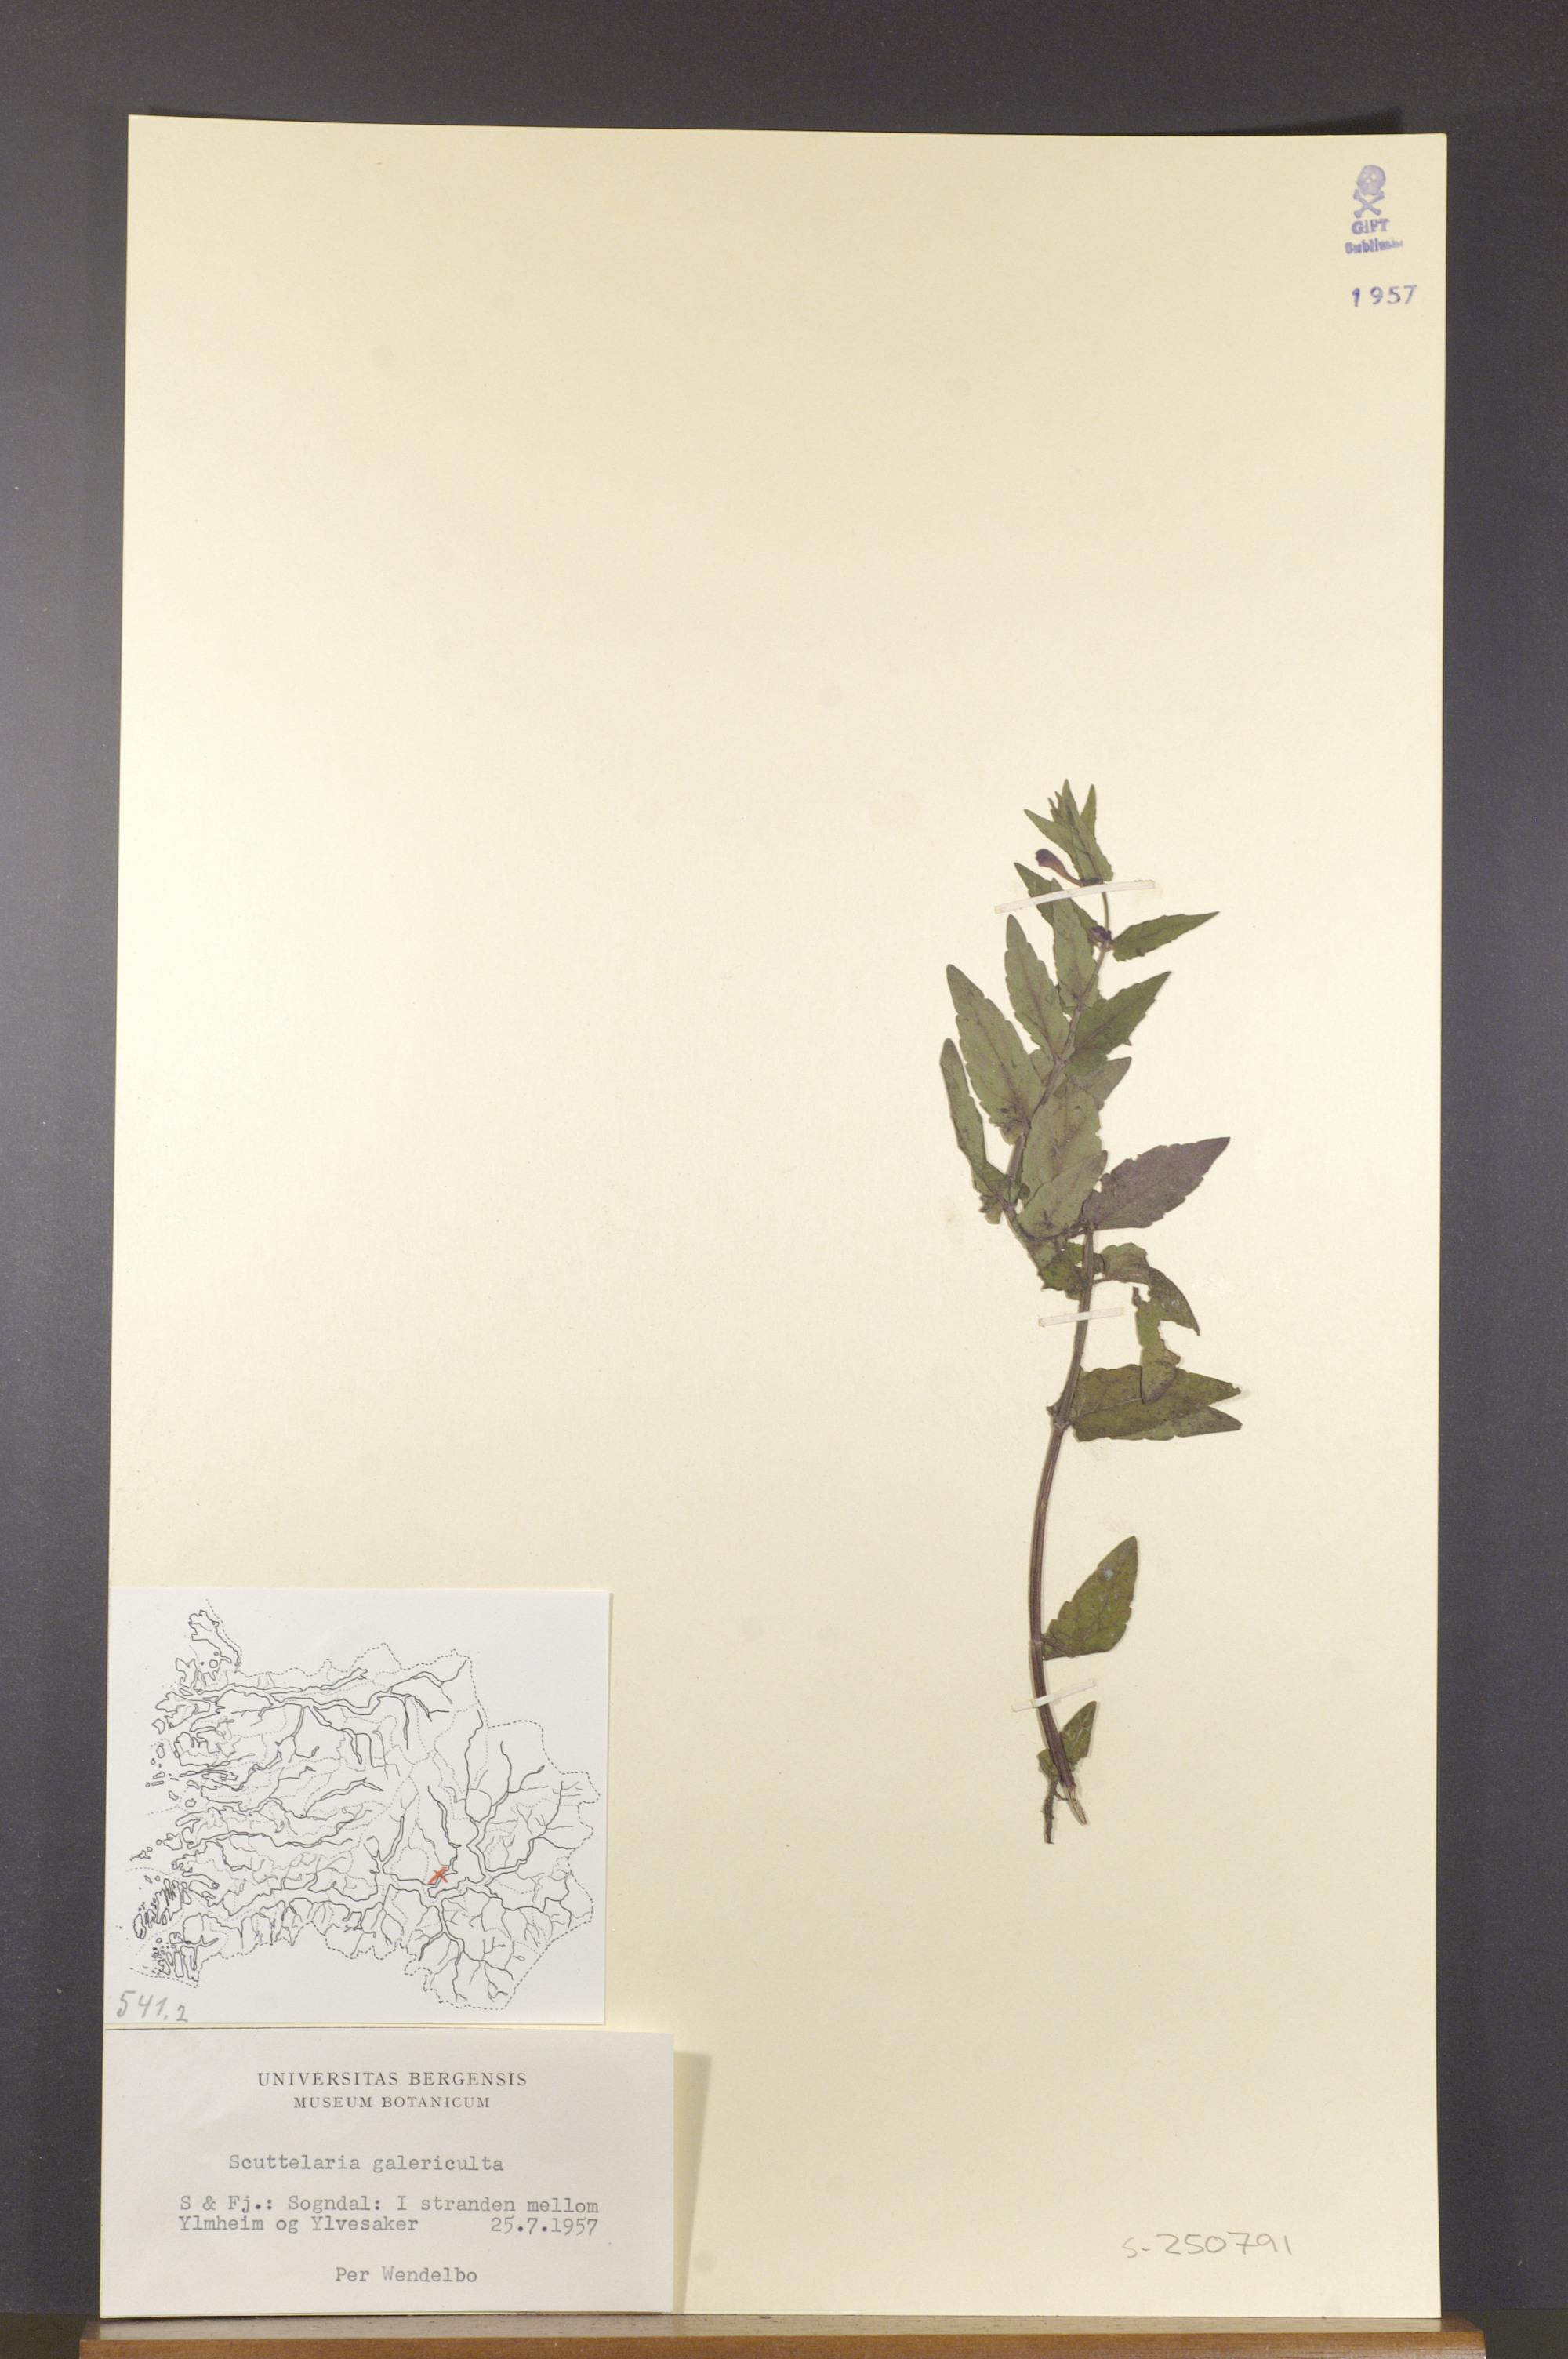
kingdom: Plantae
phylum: Tracheophyta
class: Magnoliopsida
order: Lamiales
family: Lamiaceae
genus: Scutellaria
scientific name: Scutellaria galericulata
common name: Skullcap
